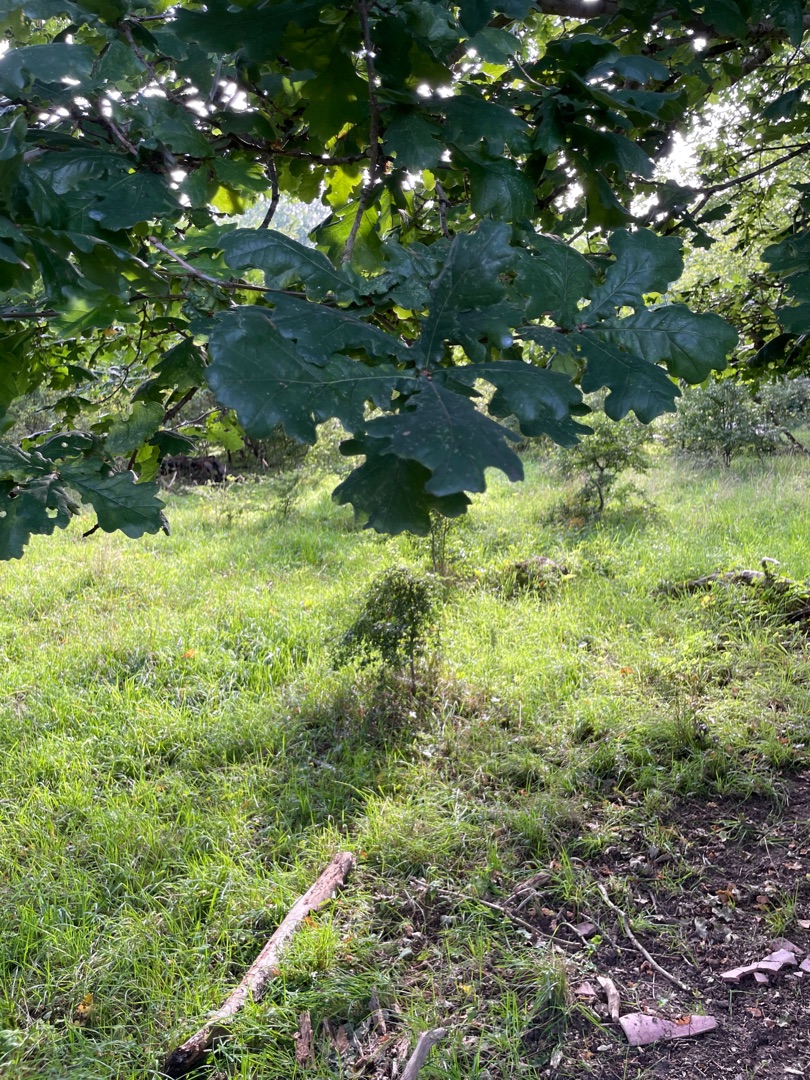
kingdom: Plantae
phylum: Tracheophyta
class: Magnoliopsida
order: Fagales
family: Fagaceae
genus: Quercus
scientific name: Quercus robur
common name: Stilk-eg/almindelig eg
